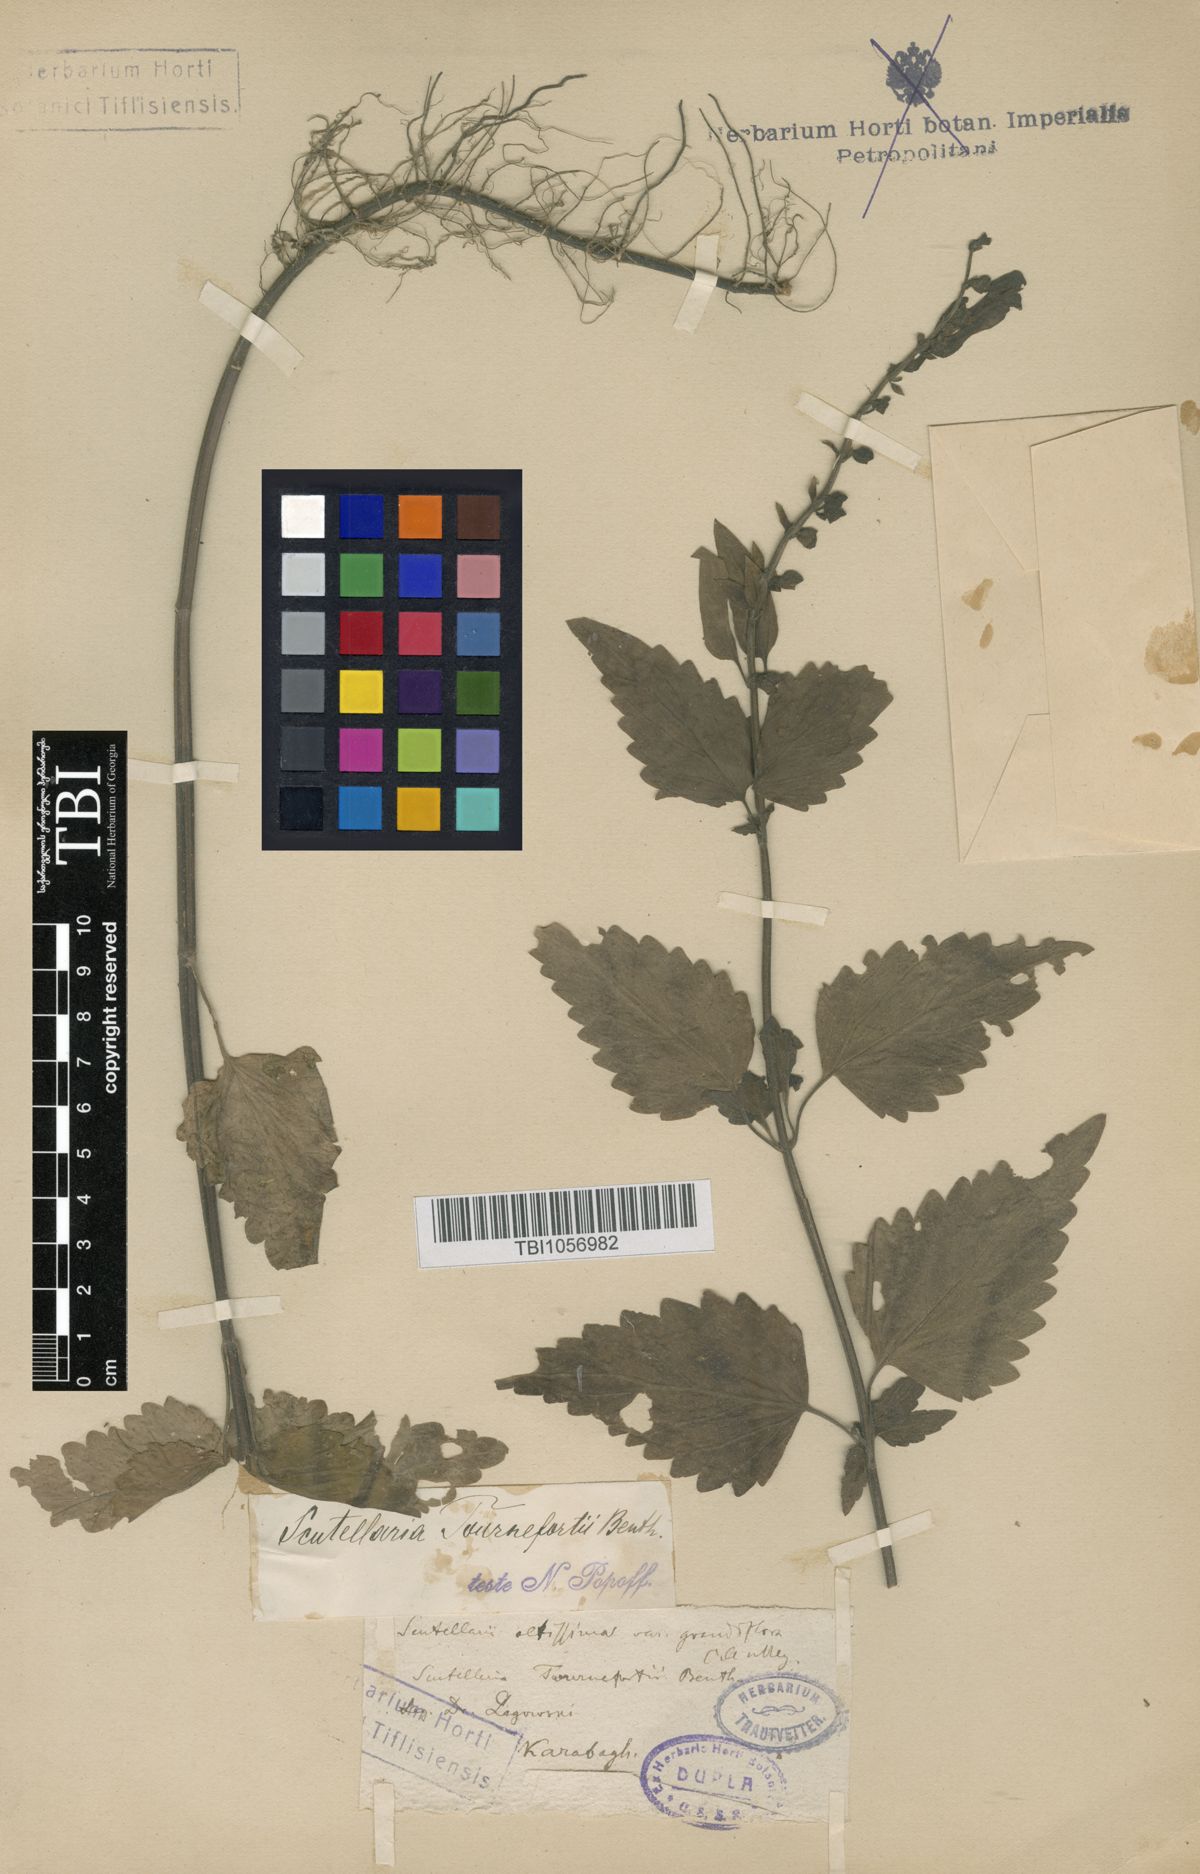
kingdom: Plantae
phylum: Tracheophyta
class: Magnoliopsida
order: Lamiales
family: Lamiaceae
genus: Scutellaria
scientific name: Scutellaria tournefortii
